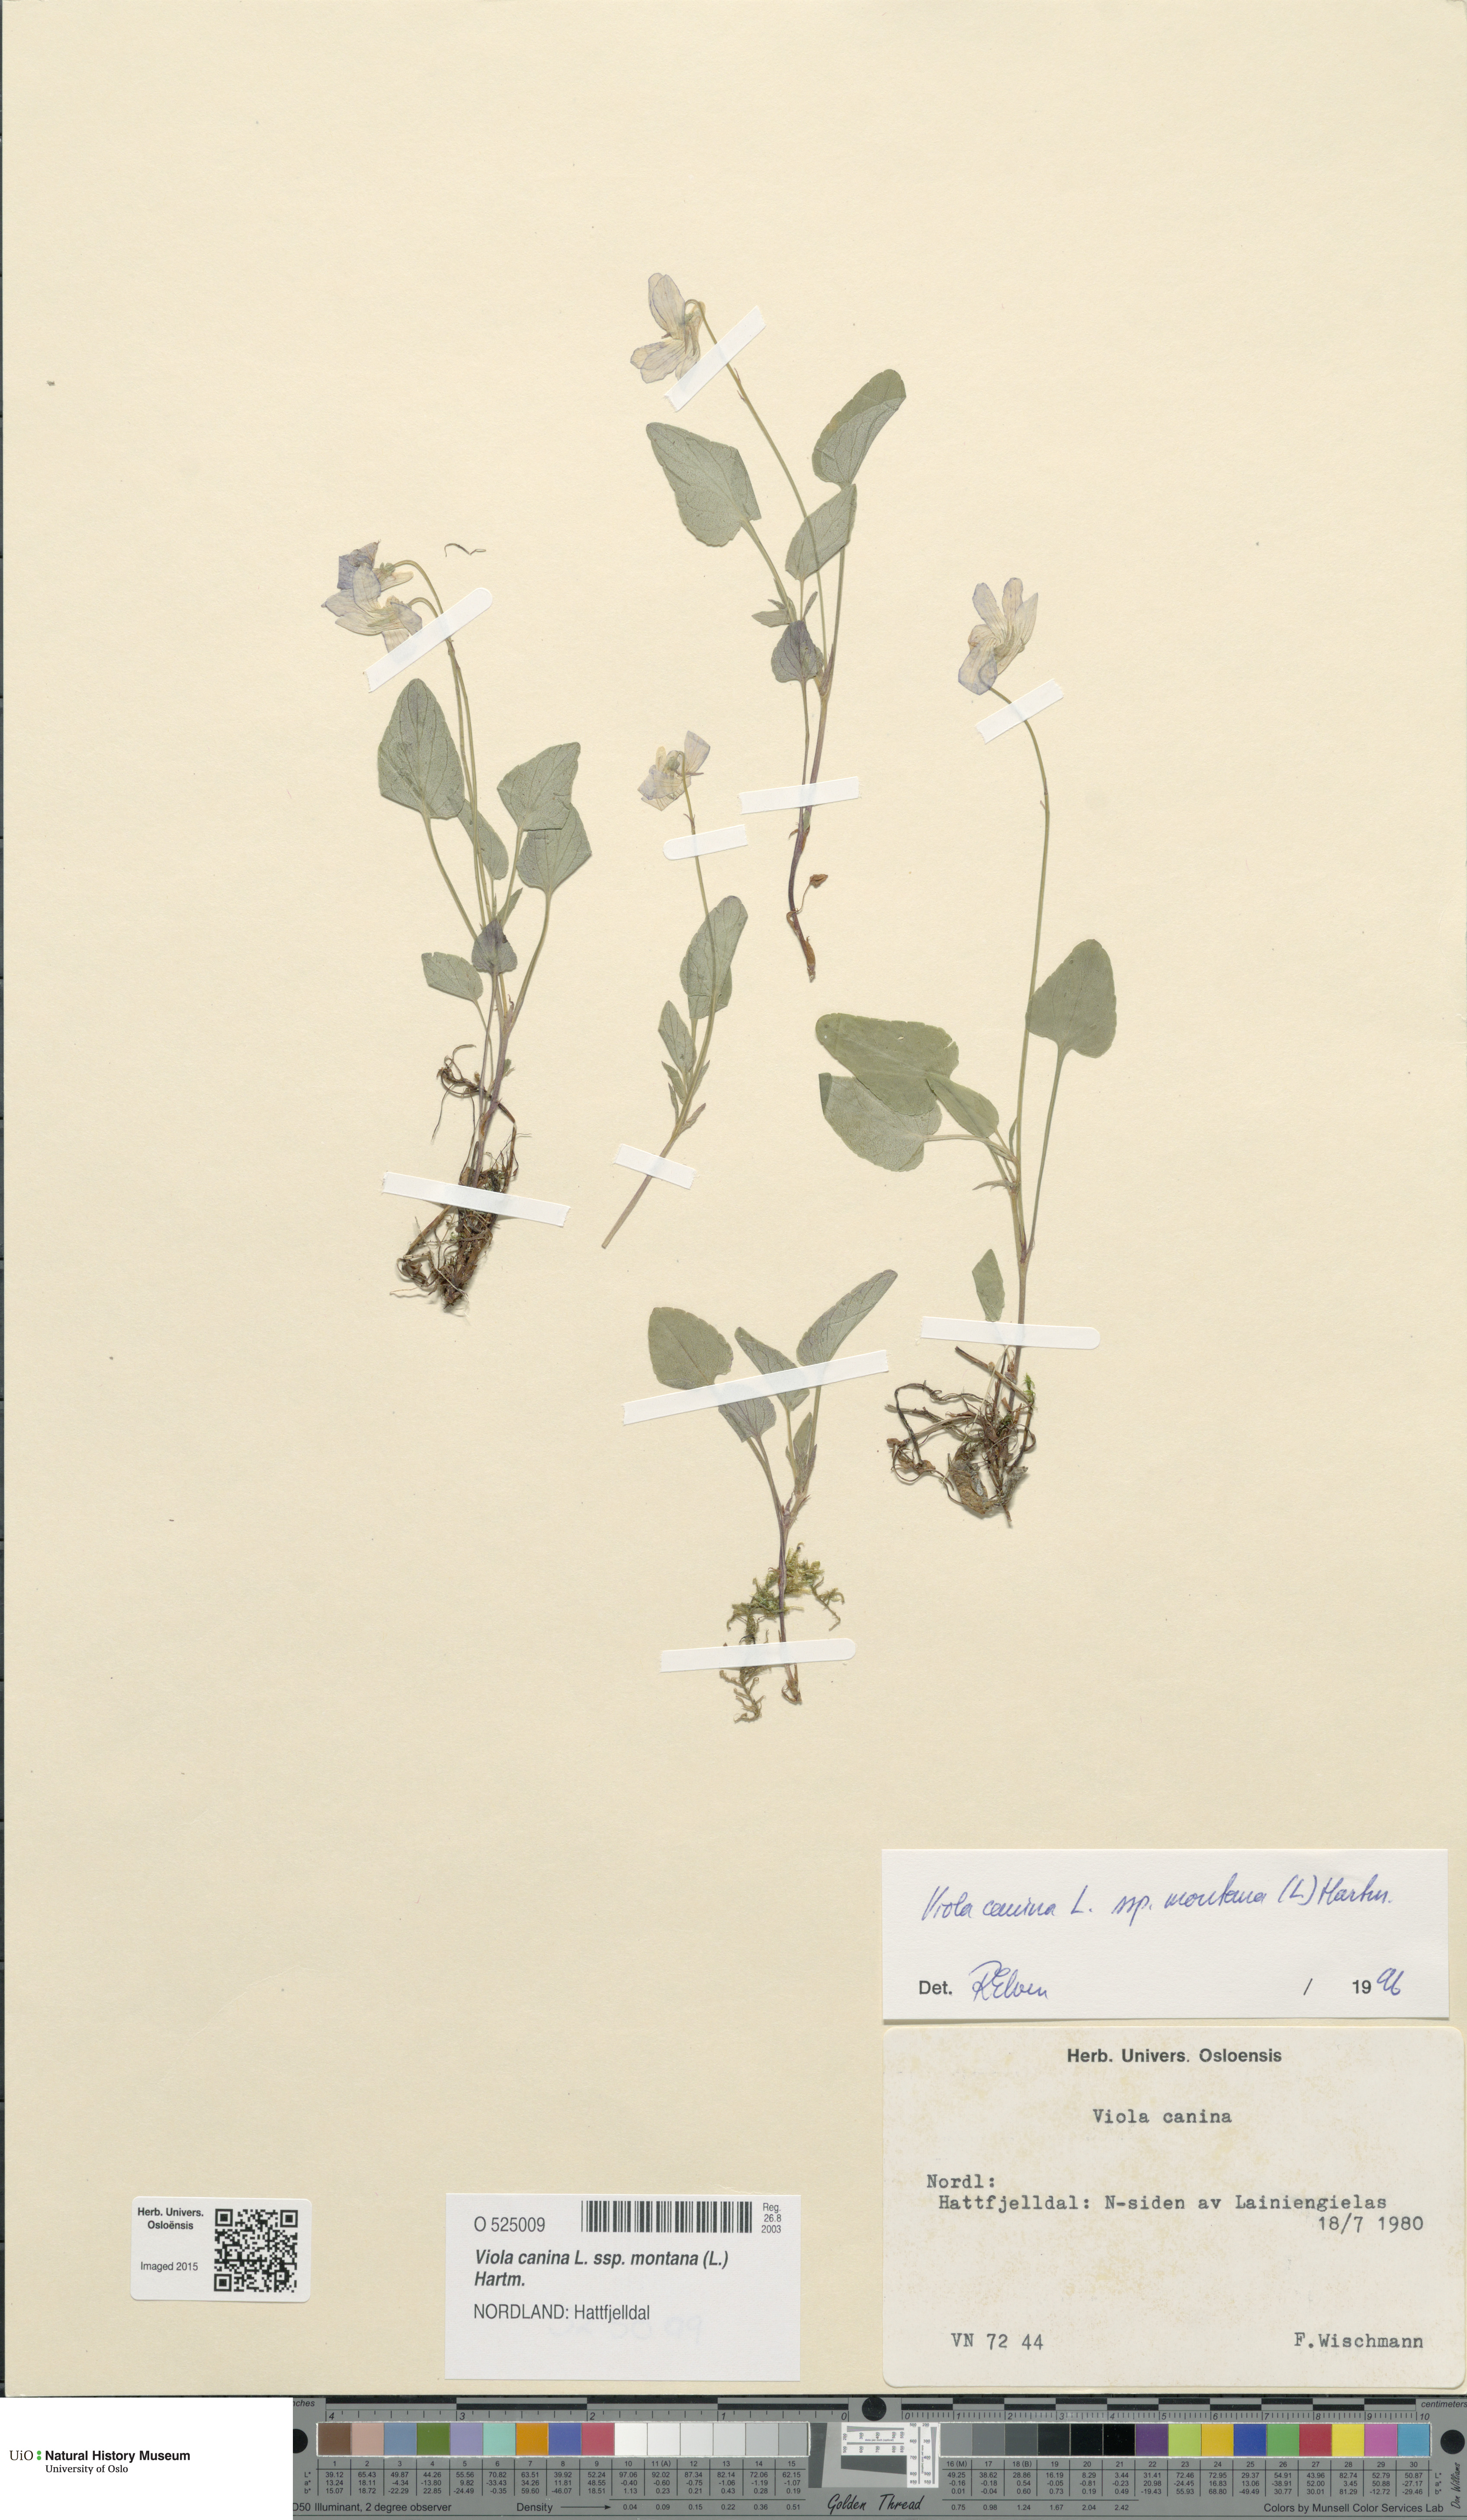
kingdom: Plantae
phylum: Tracheophyta
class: Magnoliopsida
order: Malpighiales
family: Violaceae
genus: Viola
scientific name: Viola ruppii
